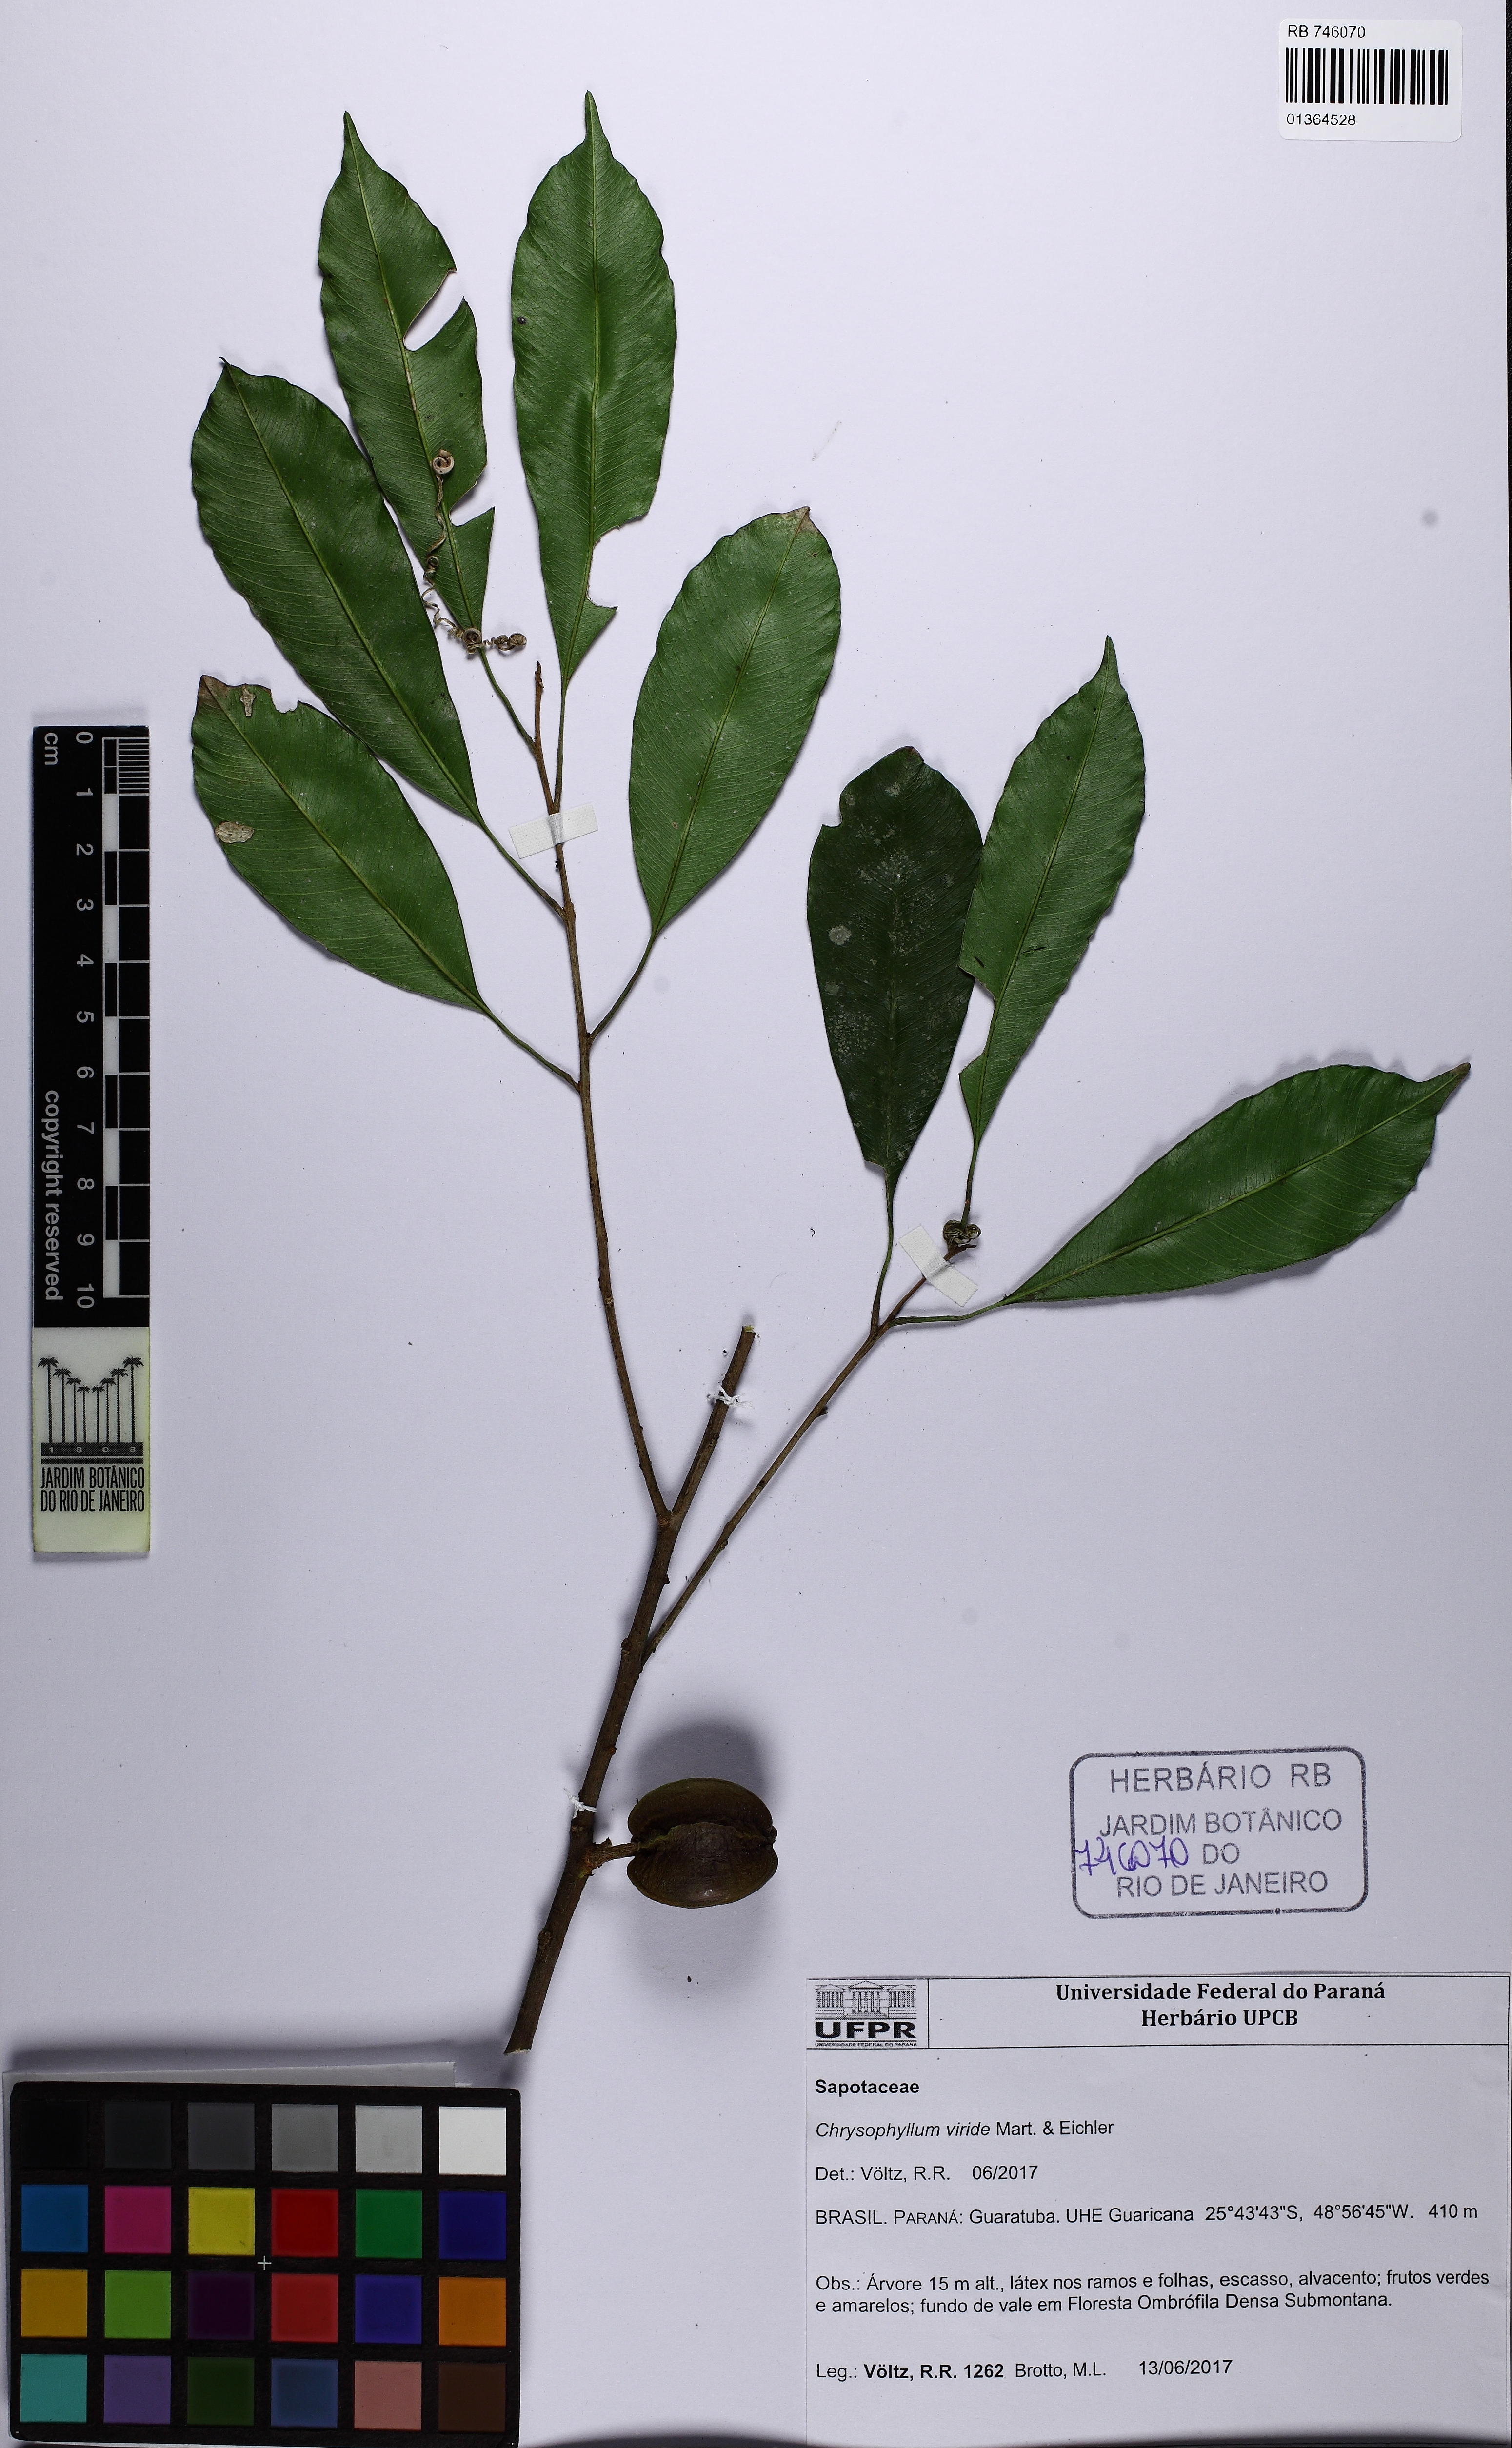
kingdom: Plantae
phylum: Tracheophyta
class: Magnoliopsida
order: Ericales
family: Sapotaceae
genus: Chrysophyllum
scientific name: Chrysophyllum viride
